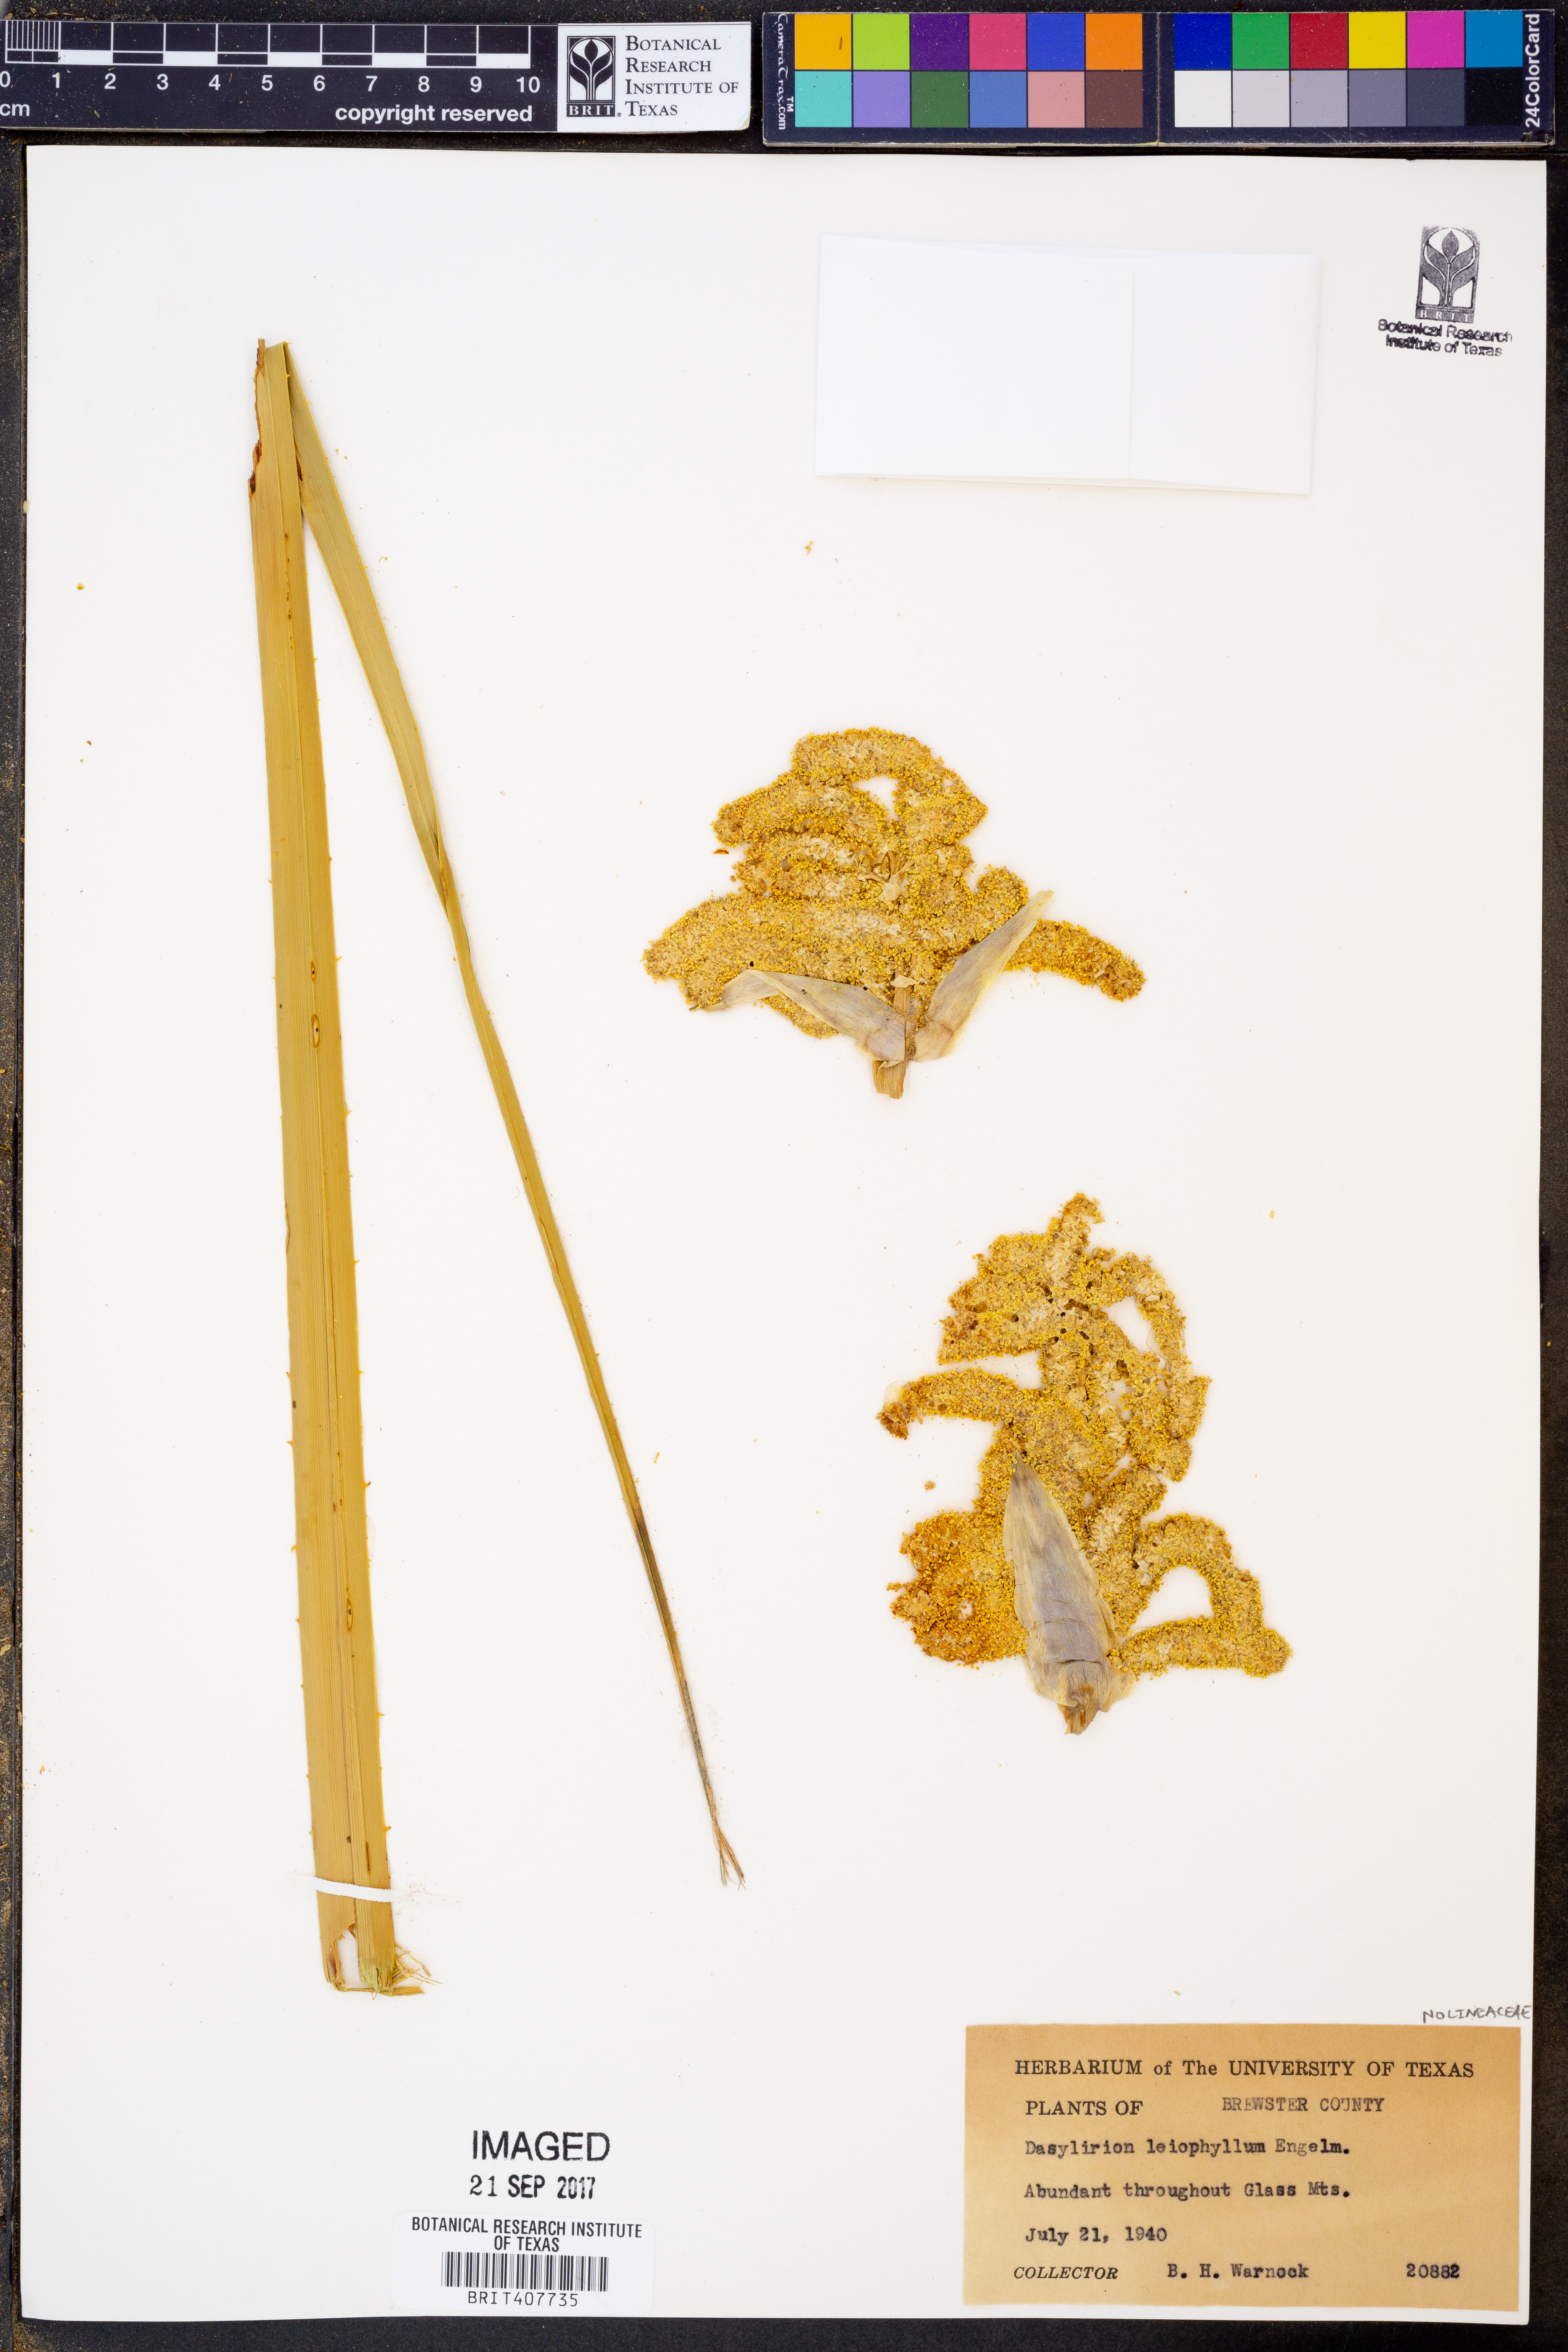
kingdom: Plantae
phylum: Tracheophyta
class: Liliopsida
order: Asparagales
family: Asparagaceae
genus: Dasylirion
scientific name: Dasylirion leiophyllum
